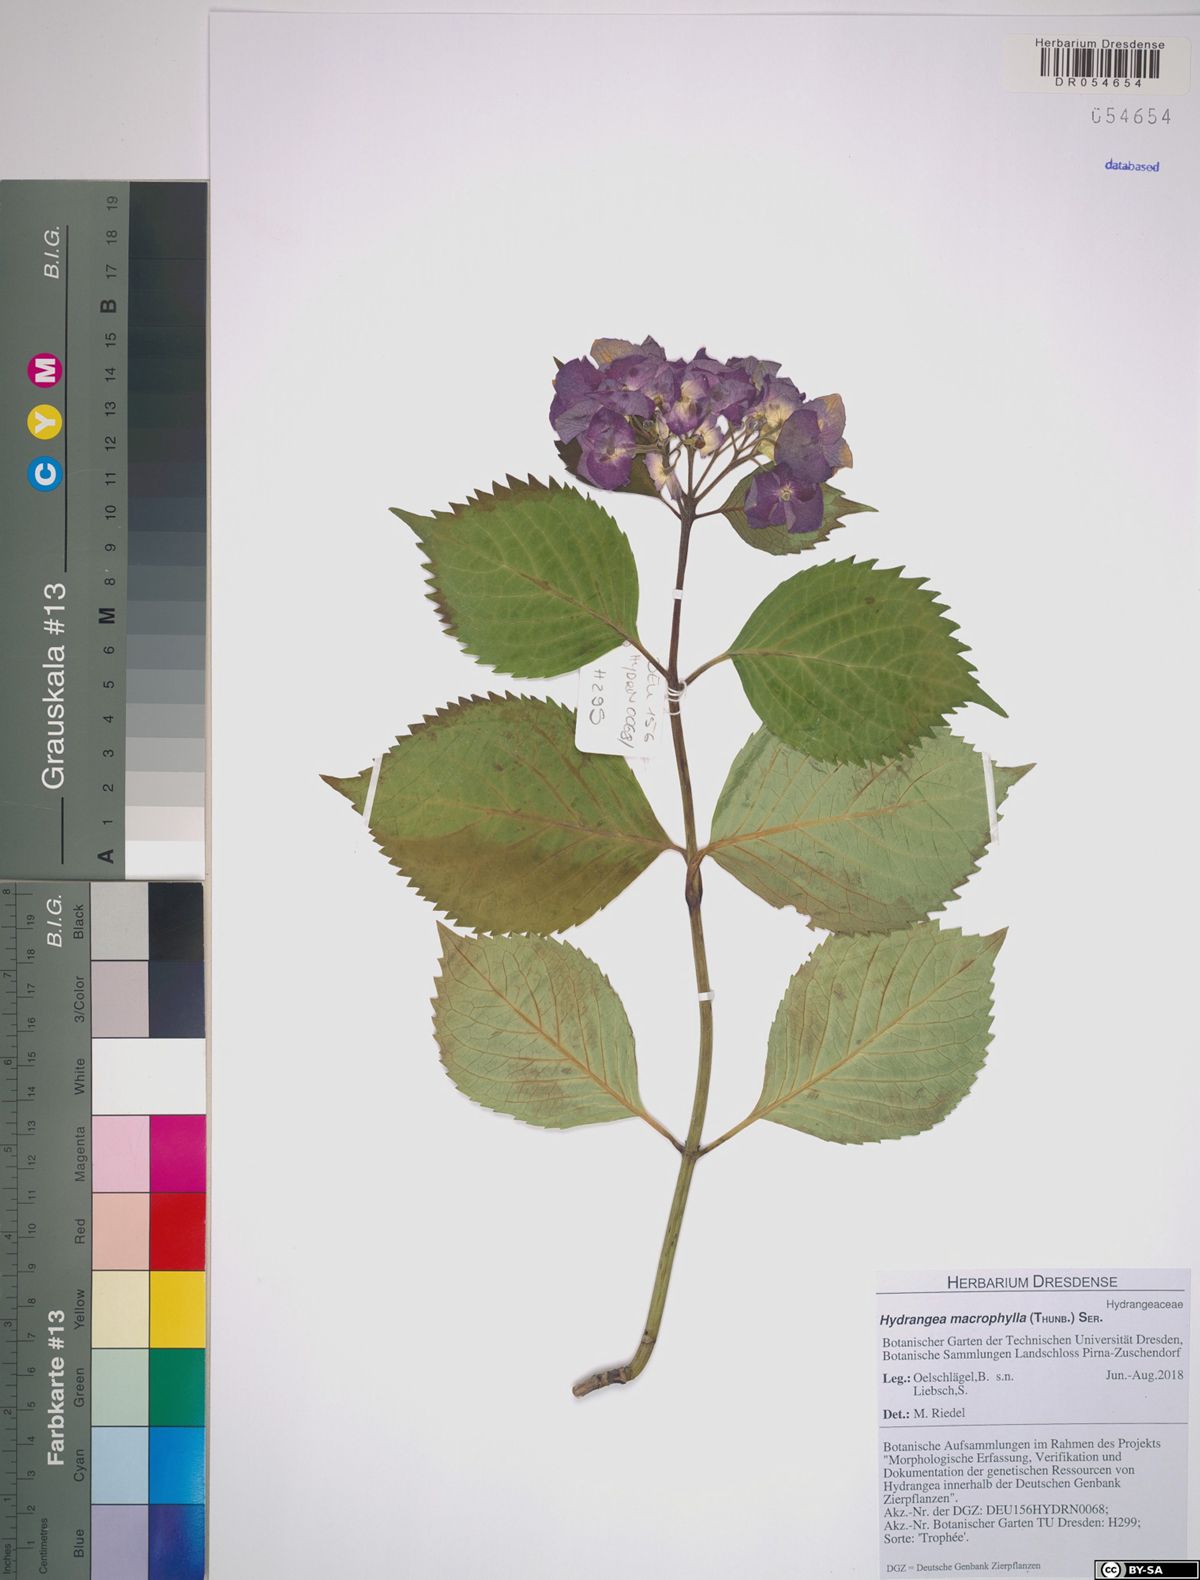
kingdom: Plantae
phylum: Tracheophyta
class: Magnoliopsida
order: Cornales
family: Hydrangeaceae
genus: Hydrangea
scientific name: Hydrangea macrophylla
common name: Hydrangea
